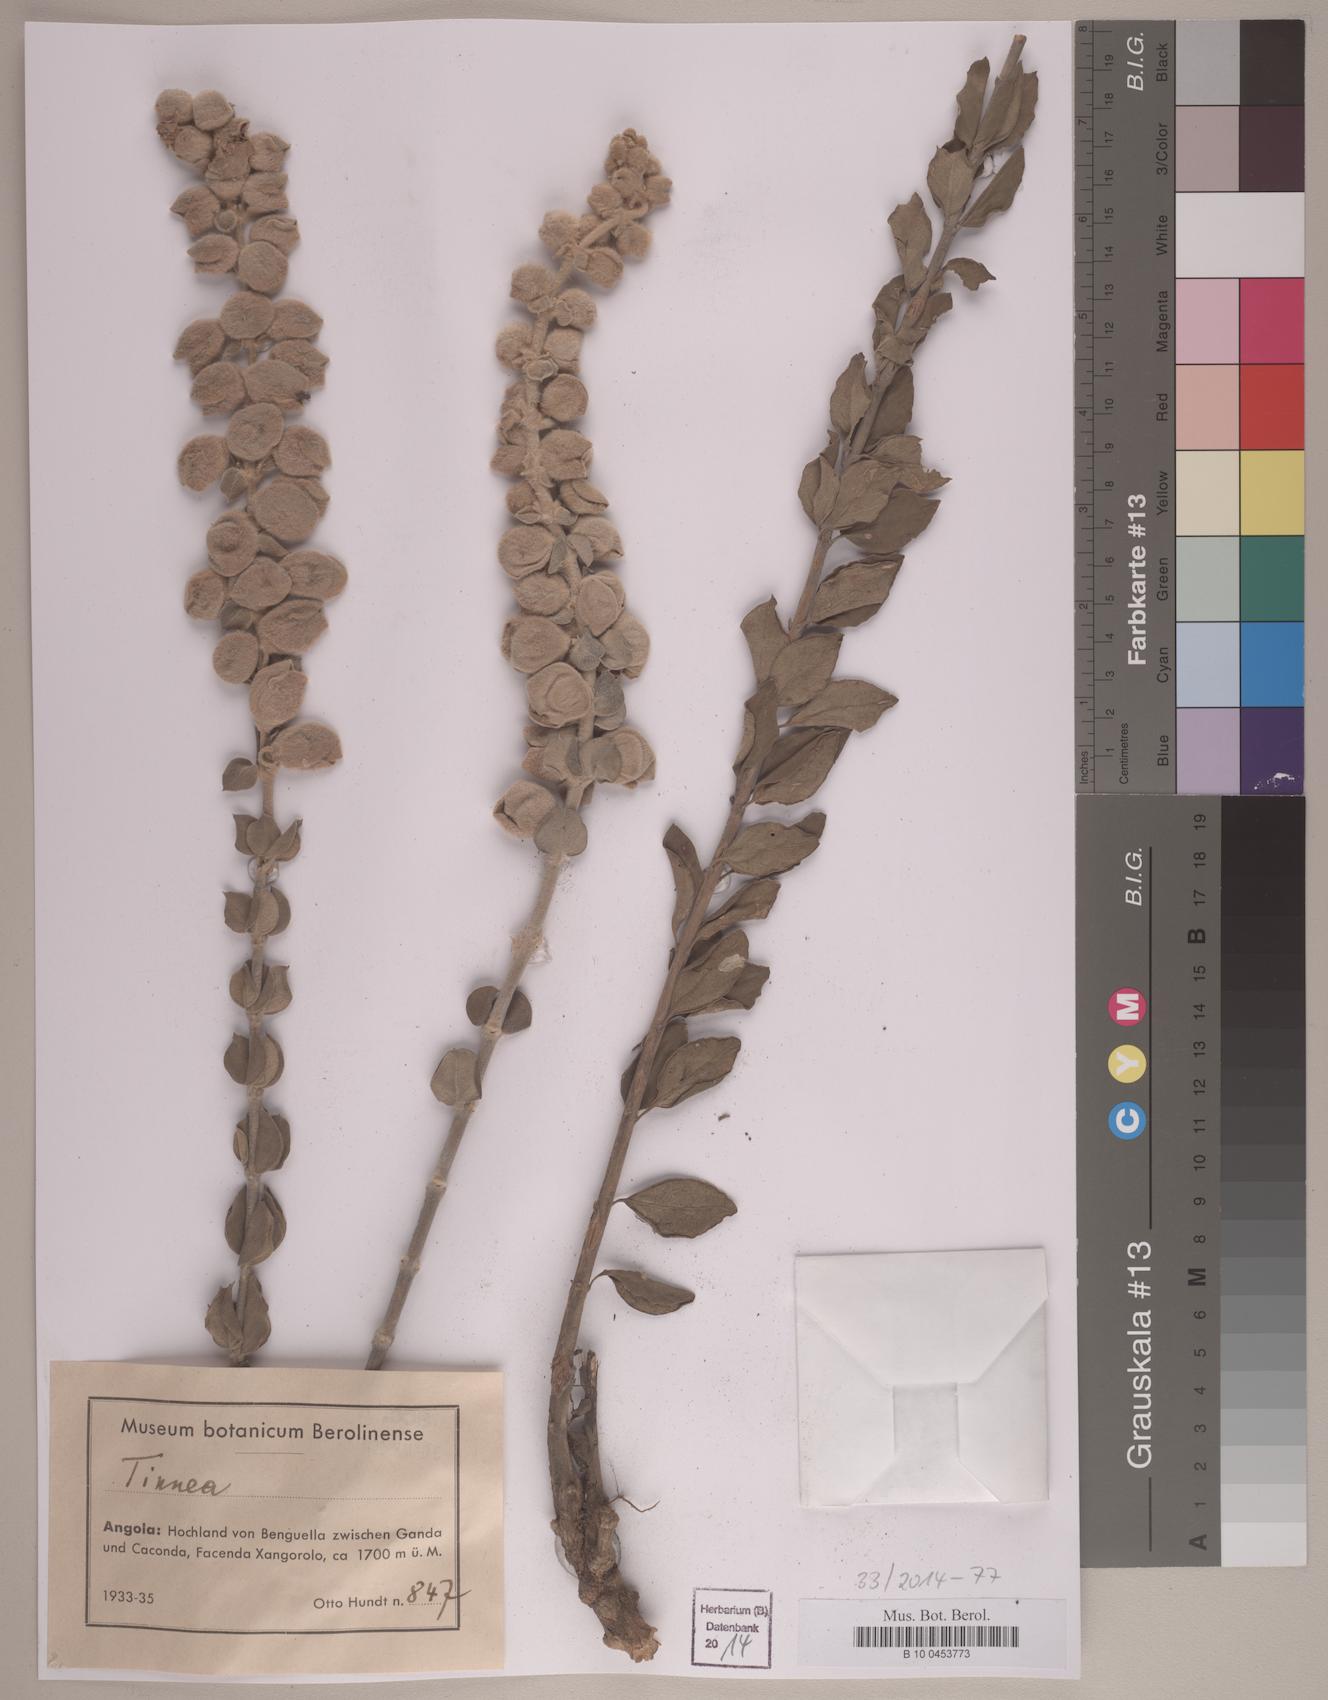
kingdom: Plantae
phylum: Tracheophyta
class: Magnoliopsida
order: Lamiales
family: Lamiaceae
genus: Tinnea
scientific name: Tinnea
